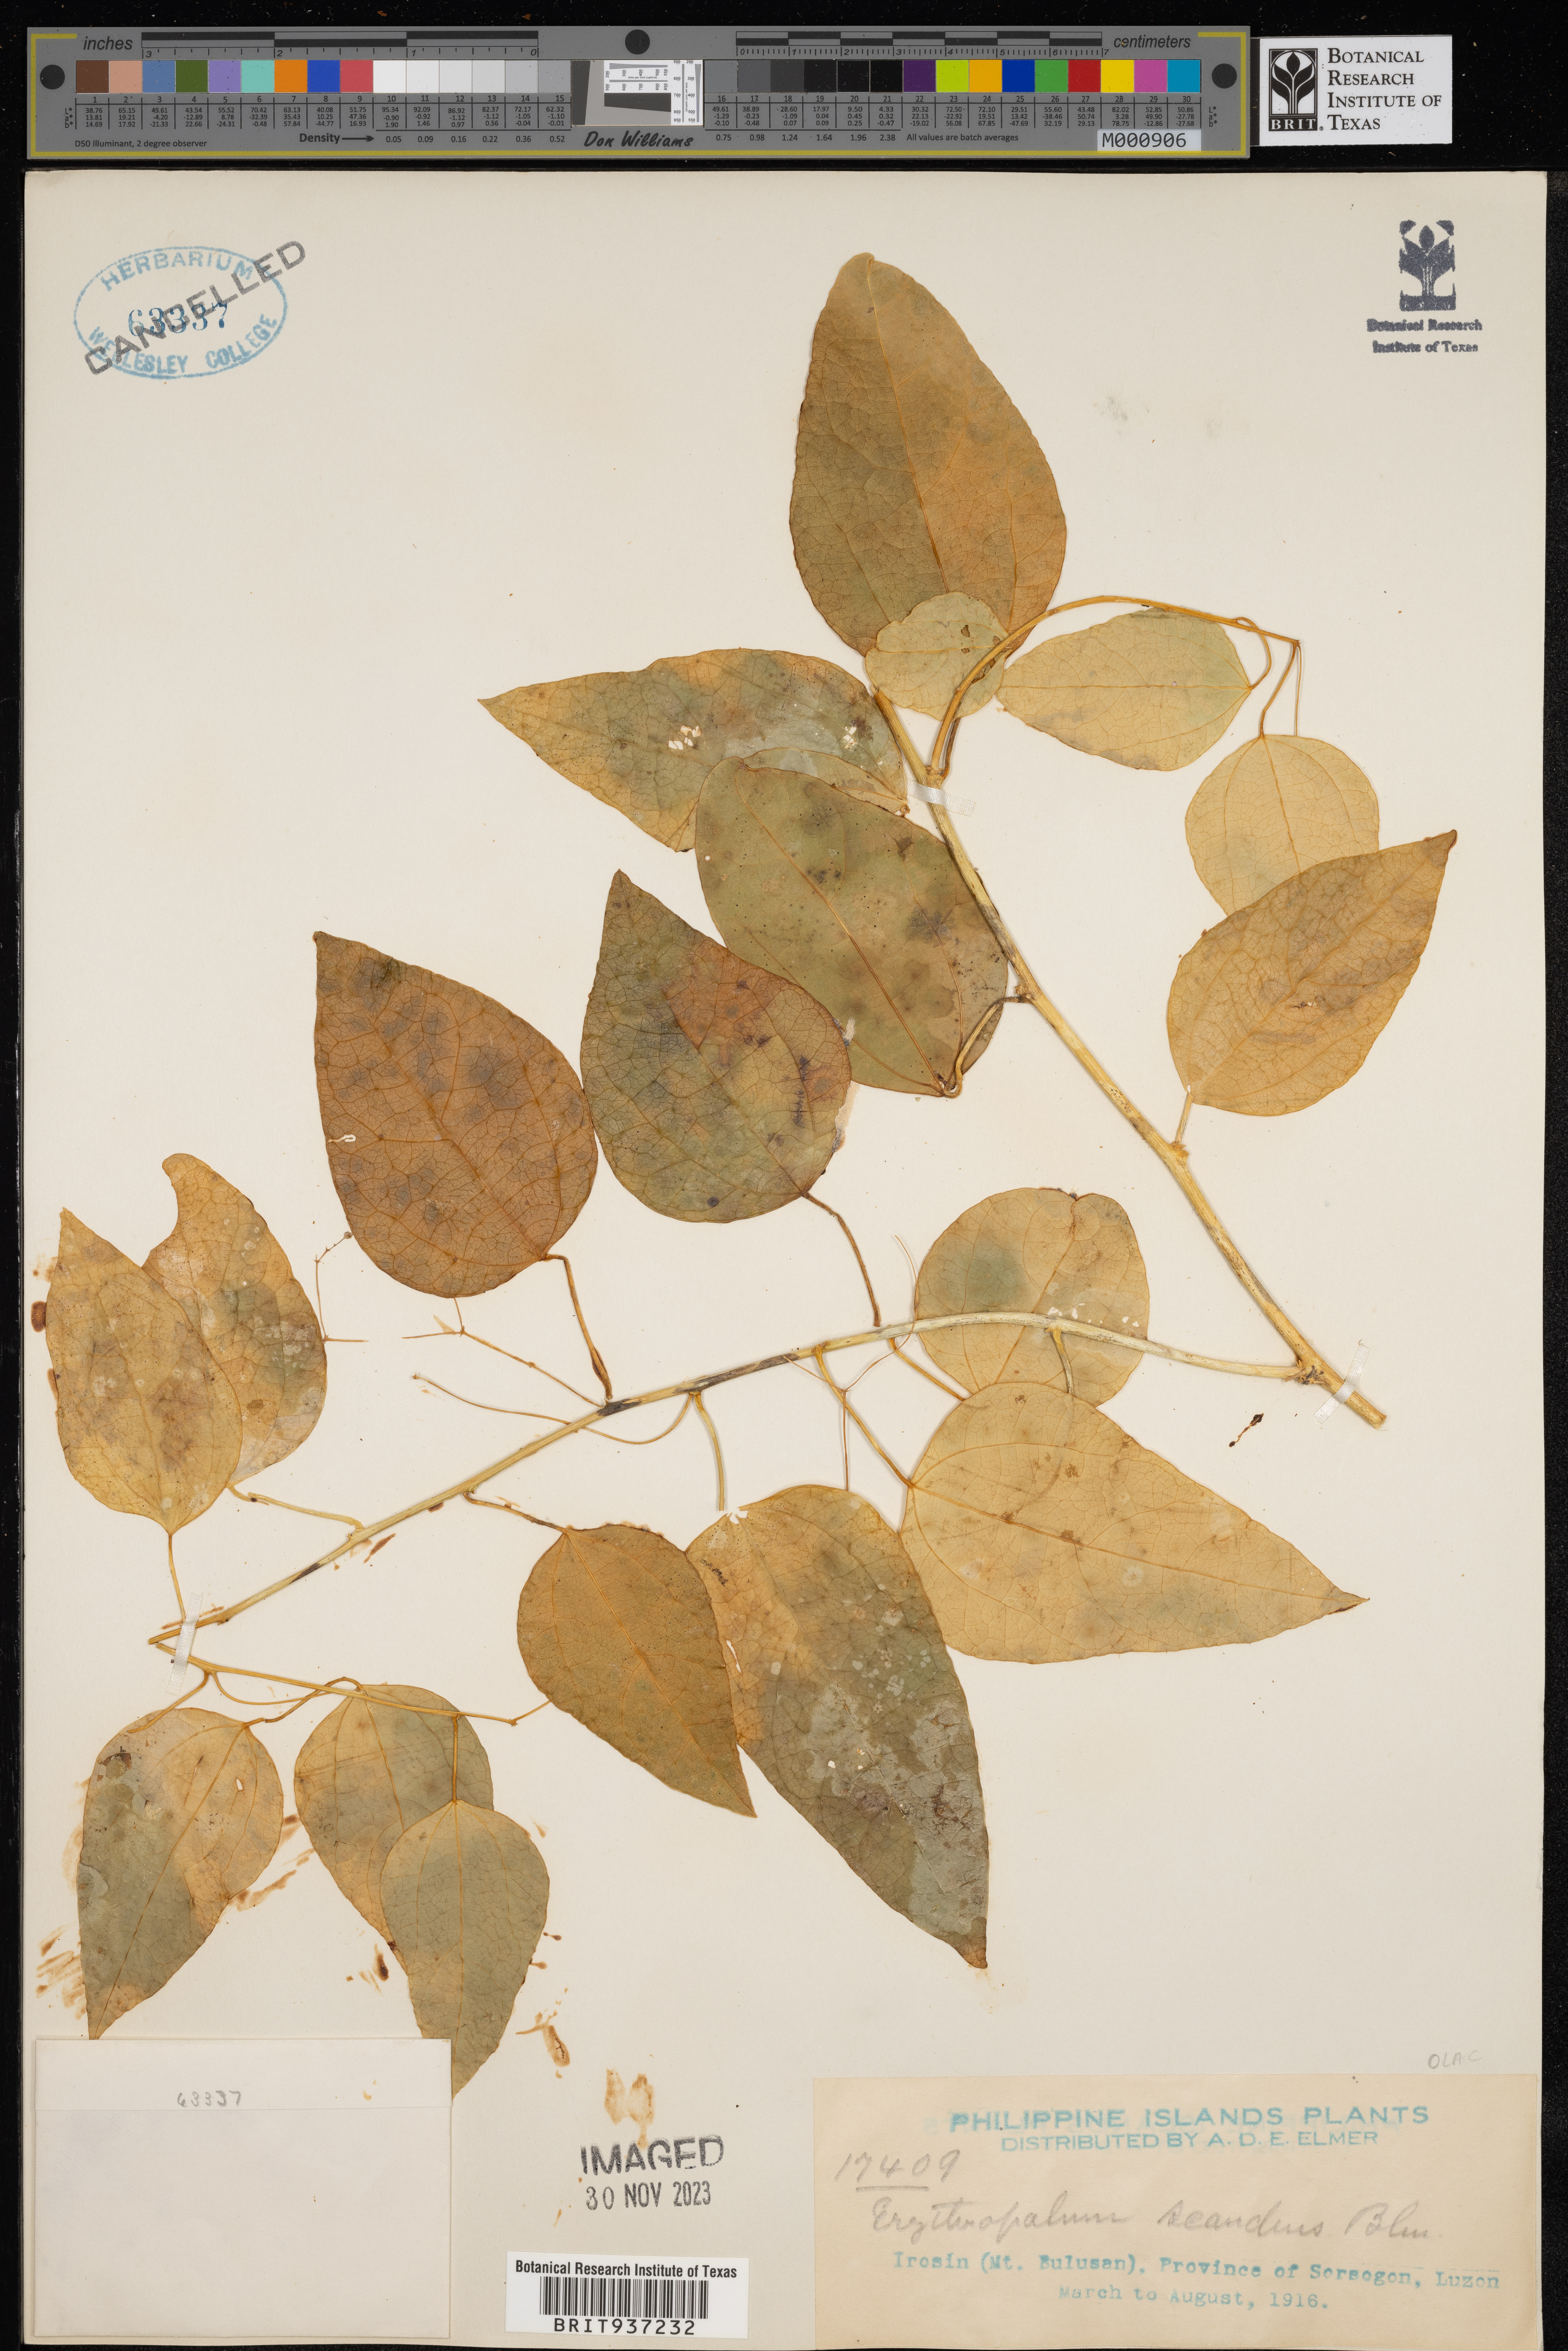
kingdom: Plantae
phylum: Tracheophyta
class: Magnoliopsida
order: Santalales
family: Erythropalaceae
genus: Erythropalum
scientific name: Erythropalum scandens
